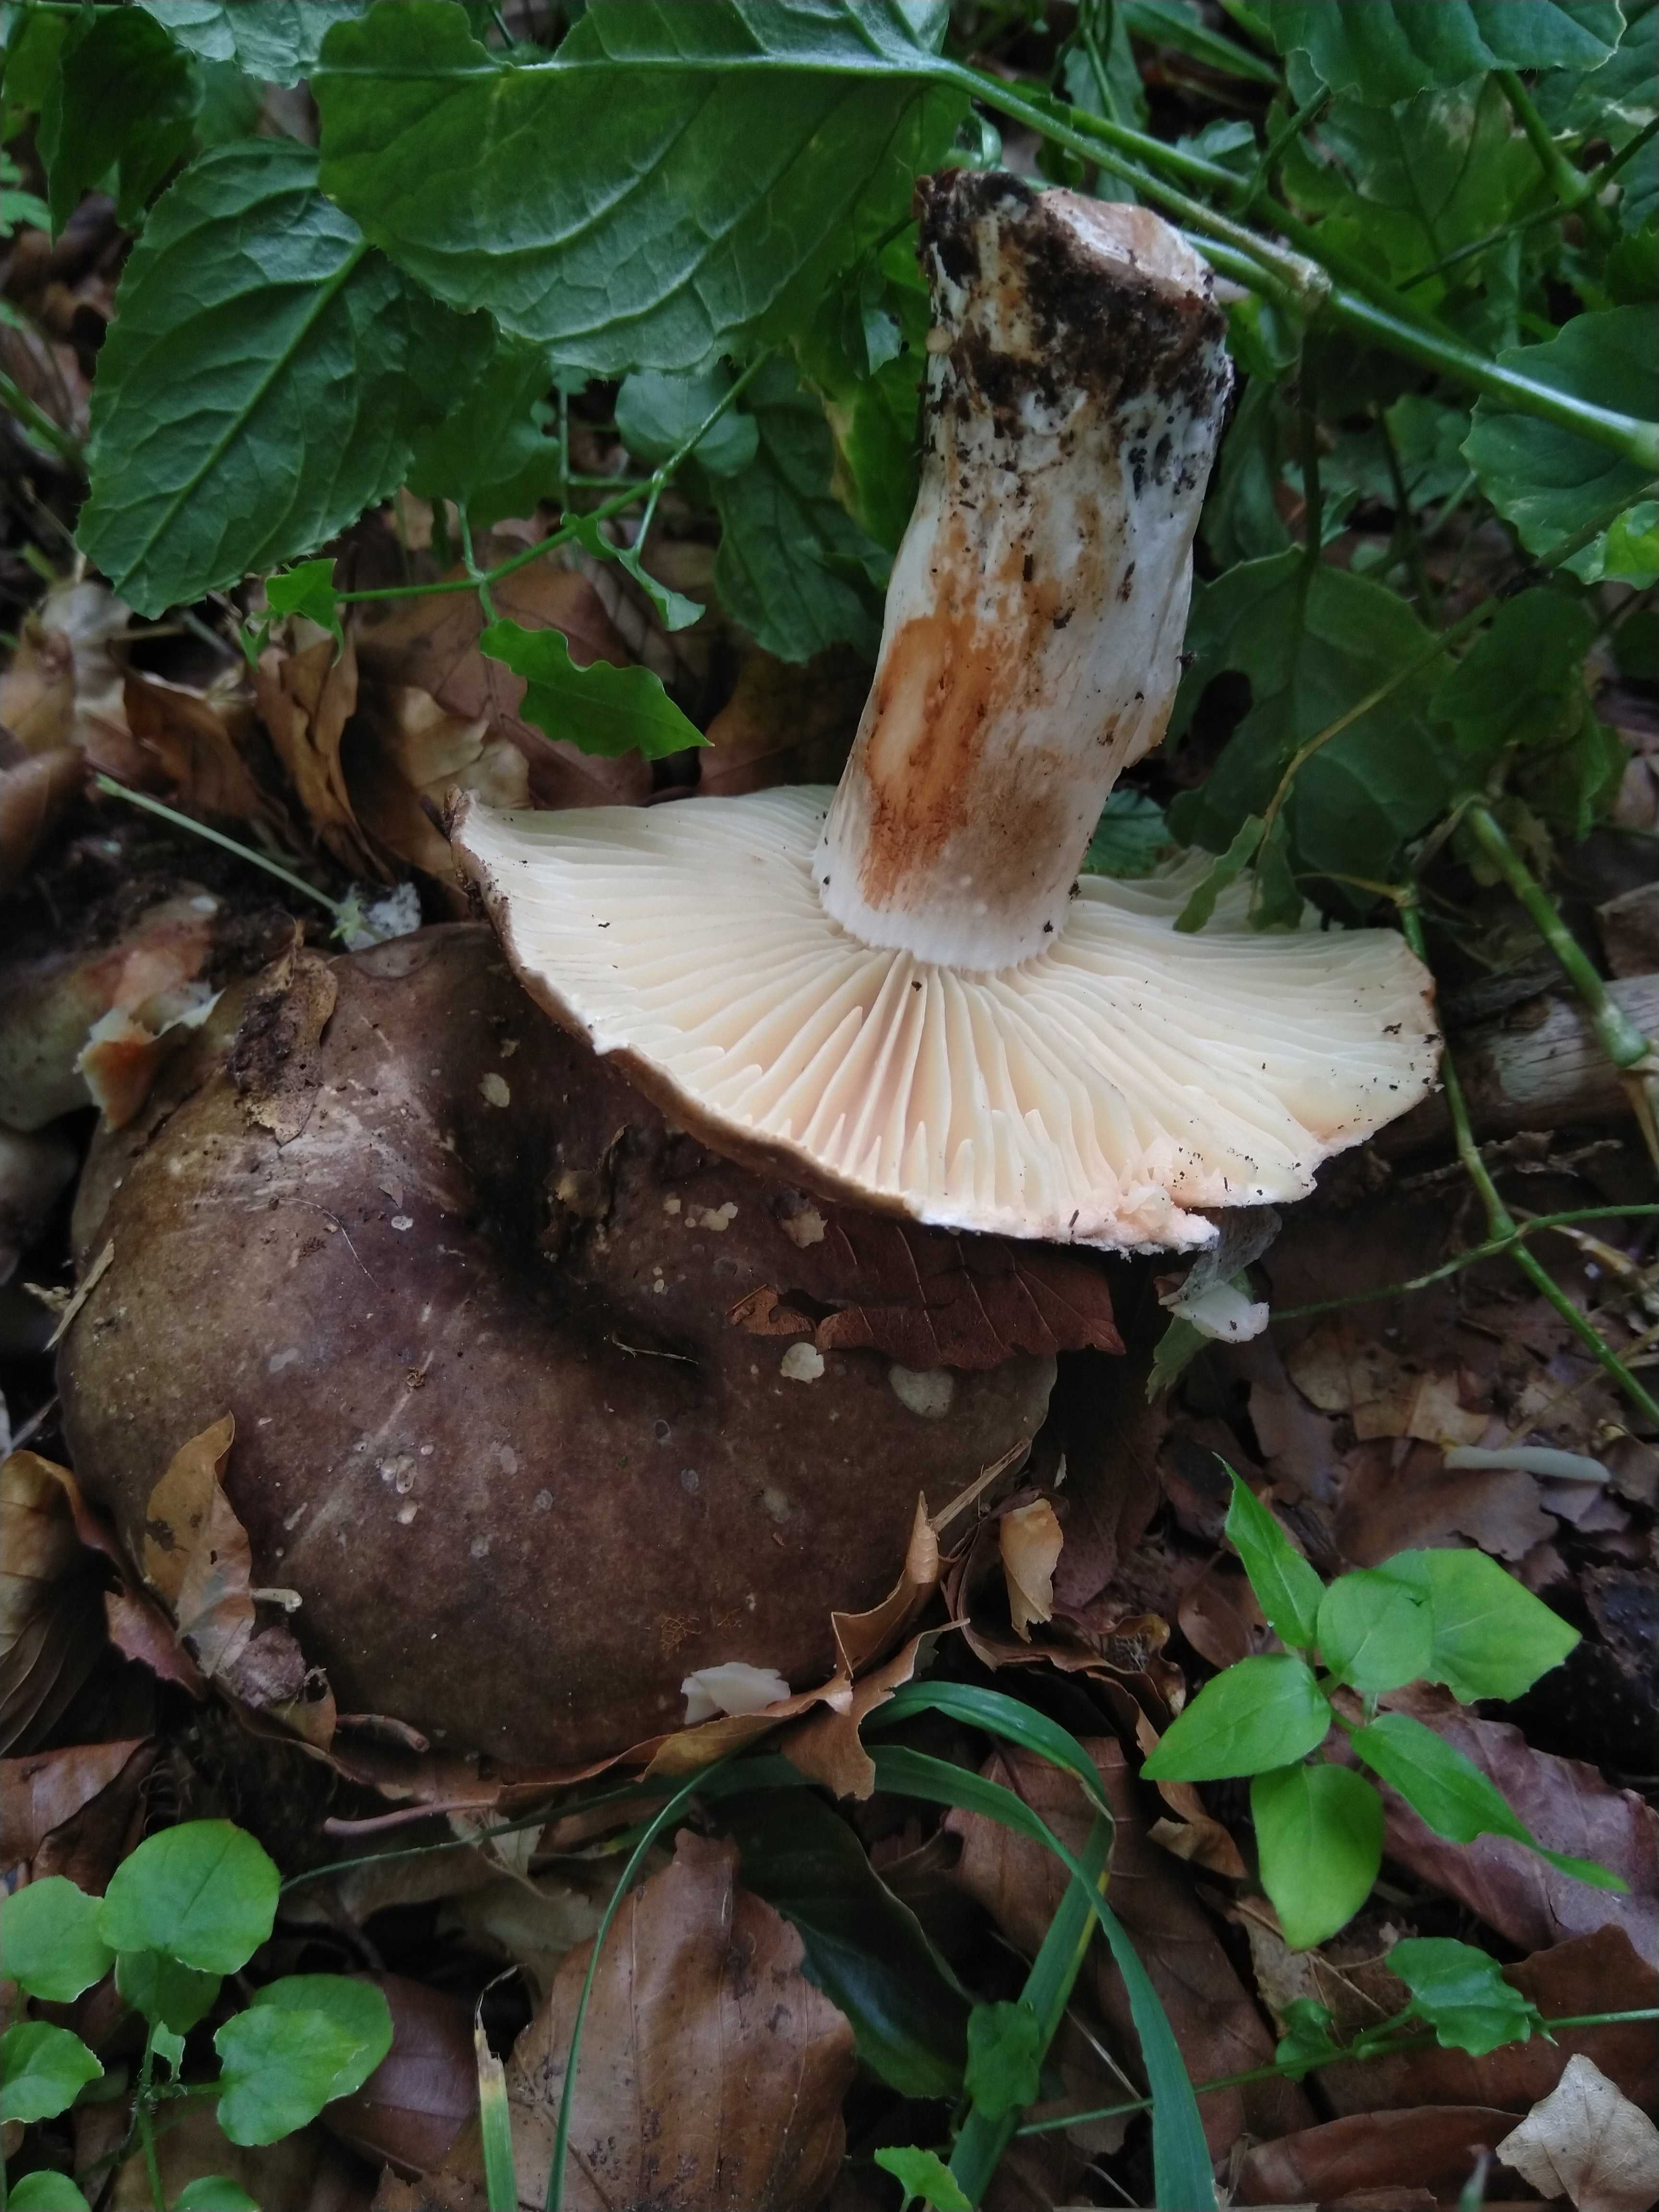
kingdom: Fungi
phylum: Basidiomycota
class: Agaricomycetes
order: Russulales
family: Russulaceae
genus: Russula
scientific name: Russula adusta
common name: sværtende skørhat
